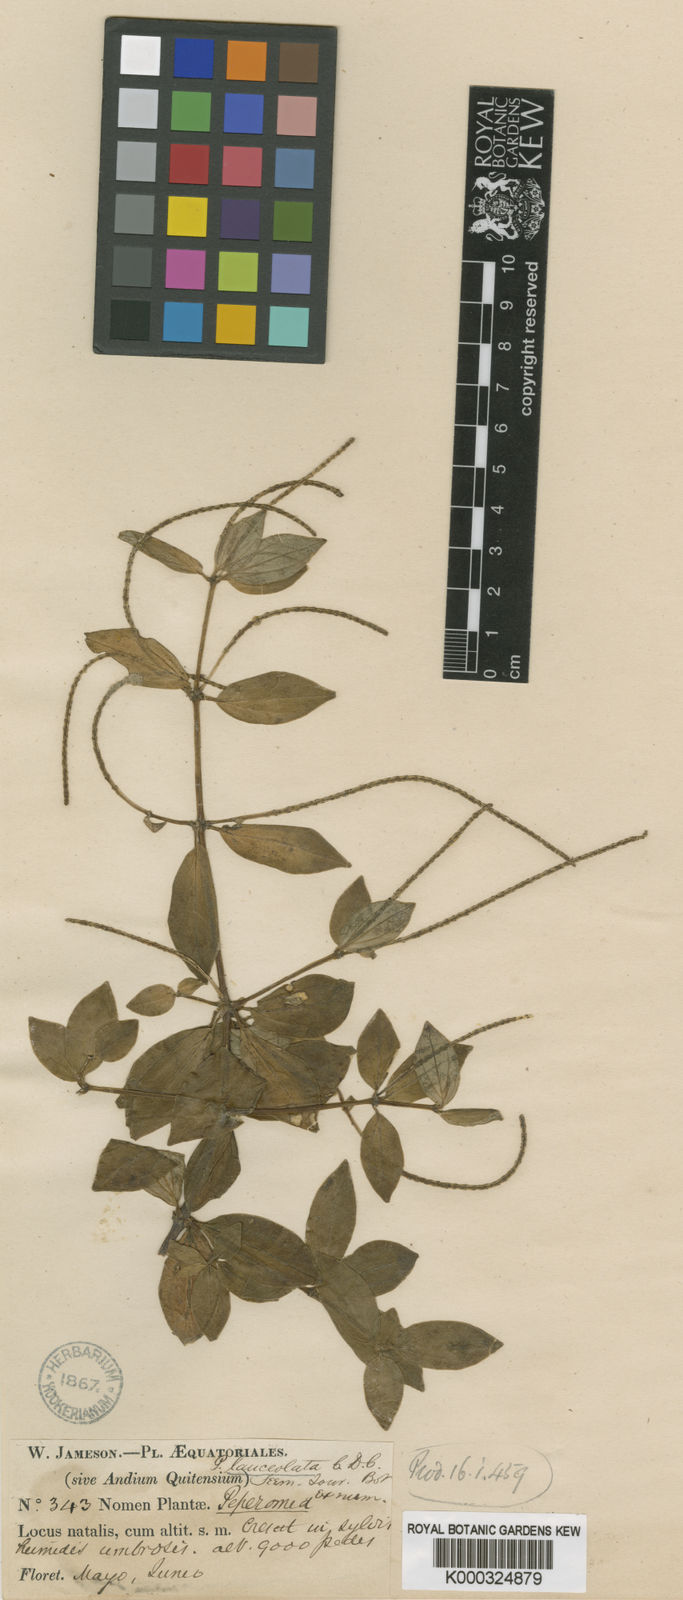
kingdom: Plantae
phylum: Tracheophyta
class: Magnoliopsida
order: Piperales
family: Piperaceae
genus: Peperomia
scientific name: Peperomia lanceolata
